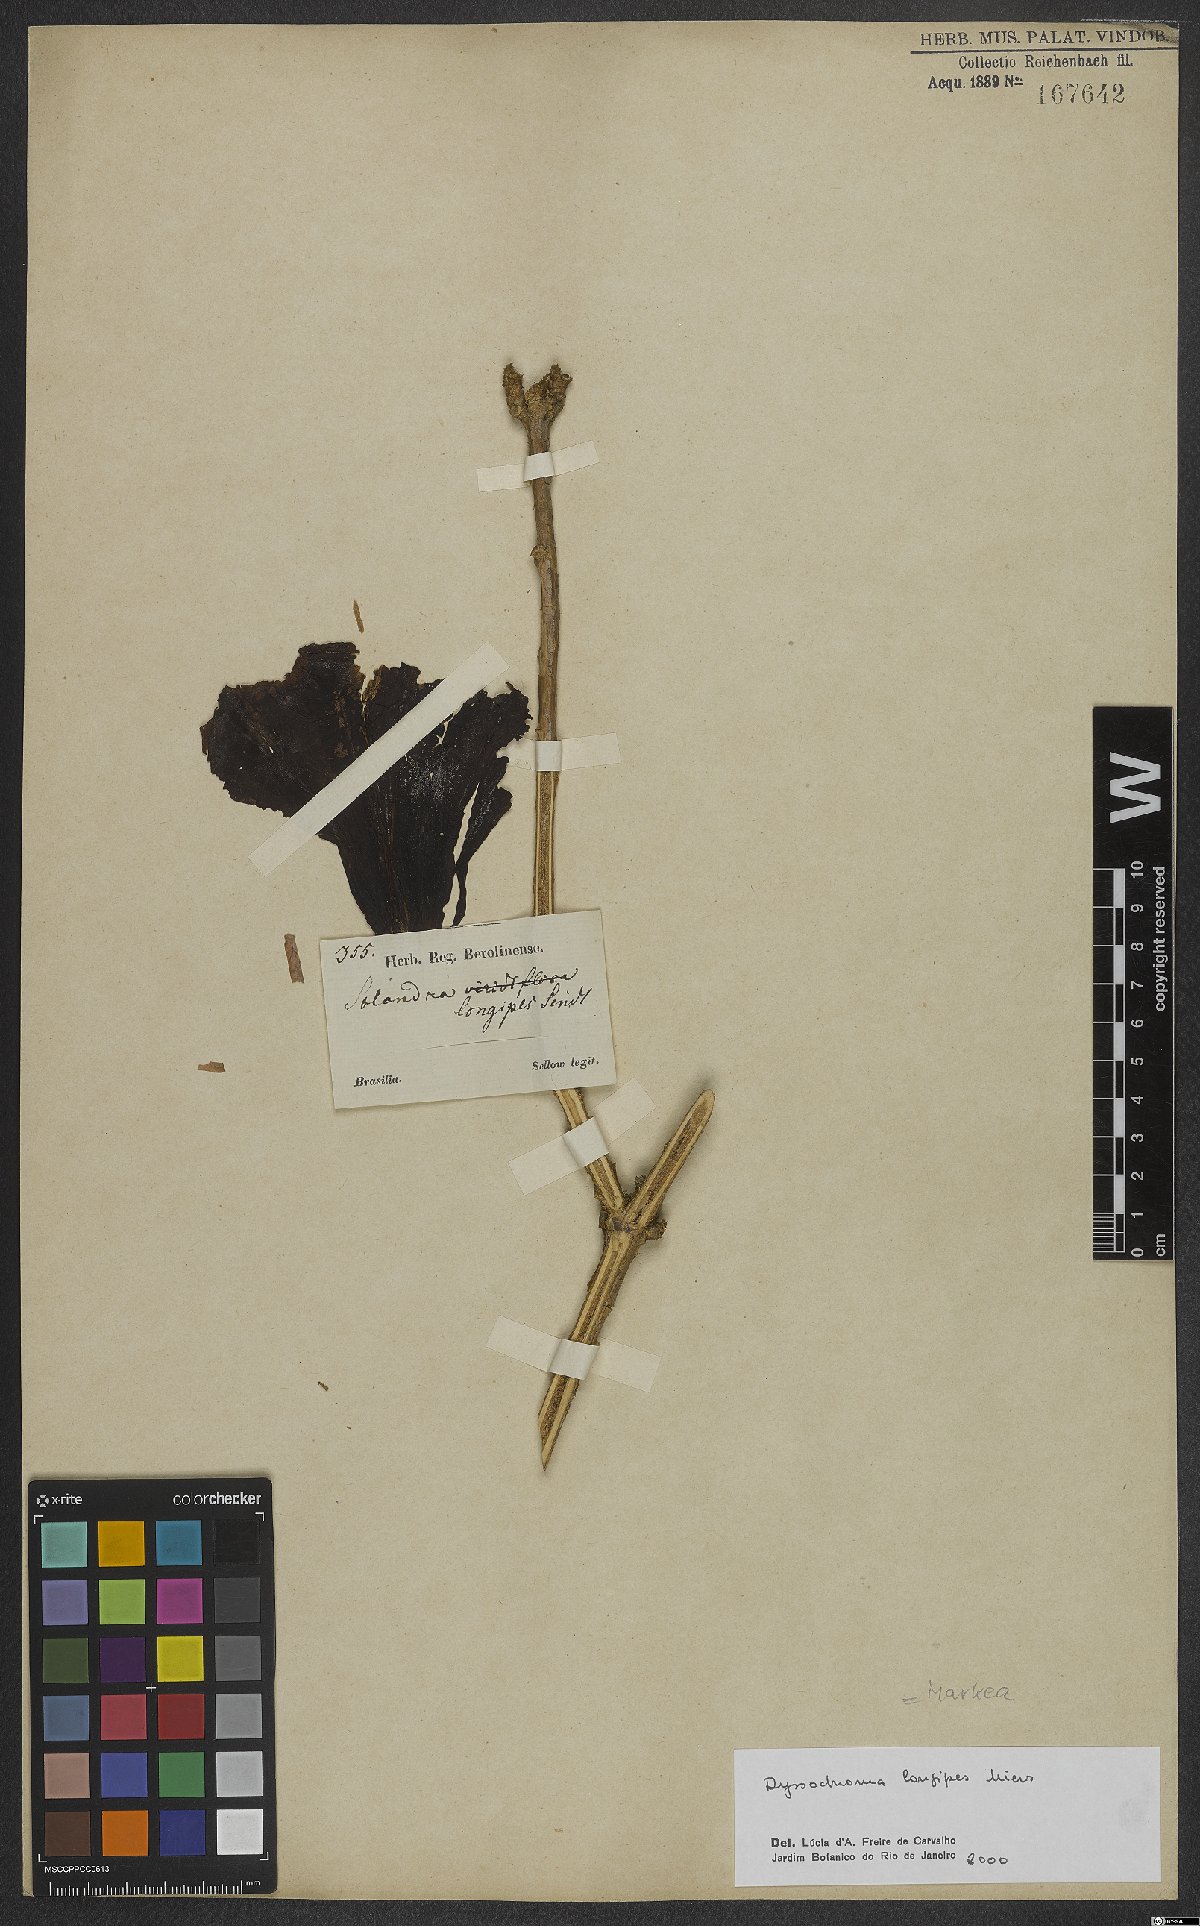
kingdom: Plantae
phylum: Tracheophyta
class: Magnoliopsida
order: Solanales
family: Solanaceae
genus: Dyssochroma
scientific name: Dyssochroma longipes
